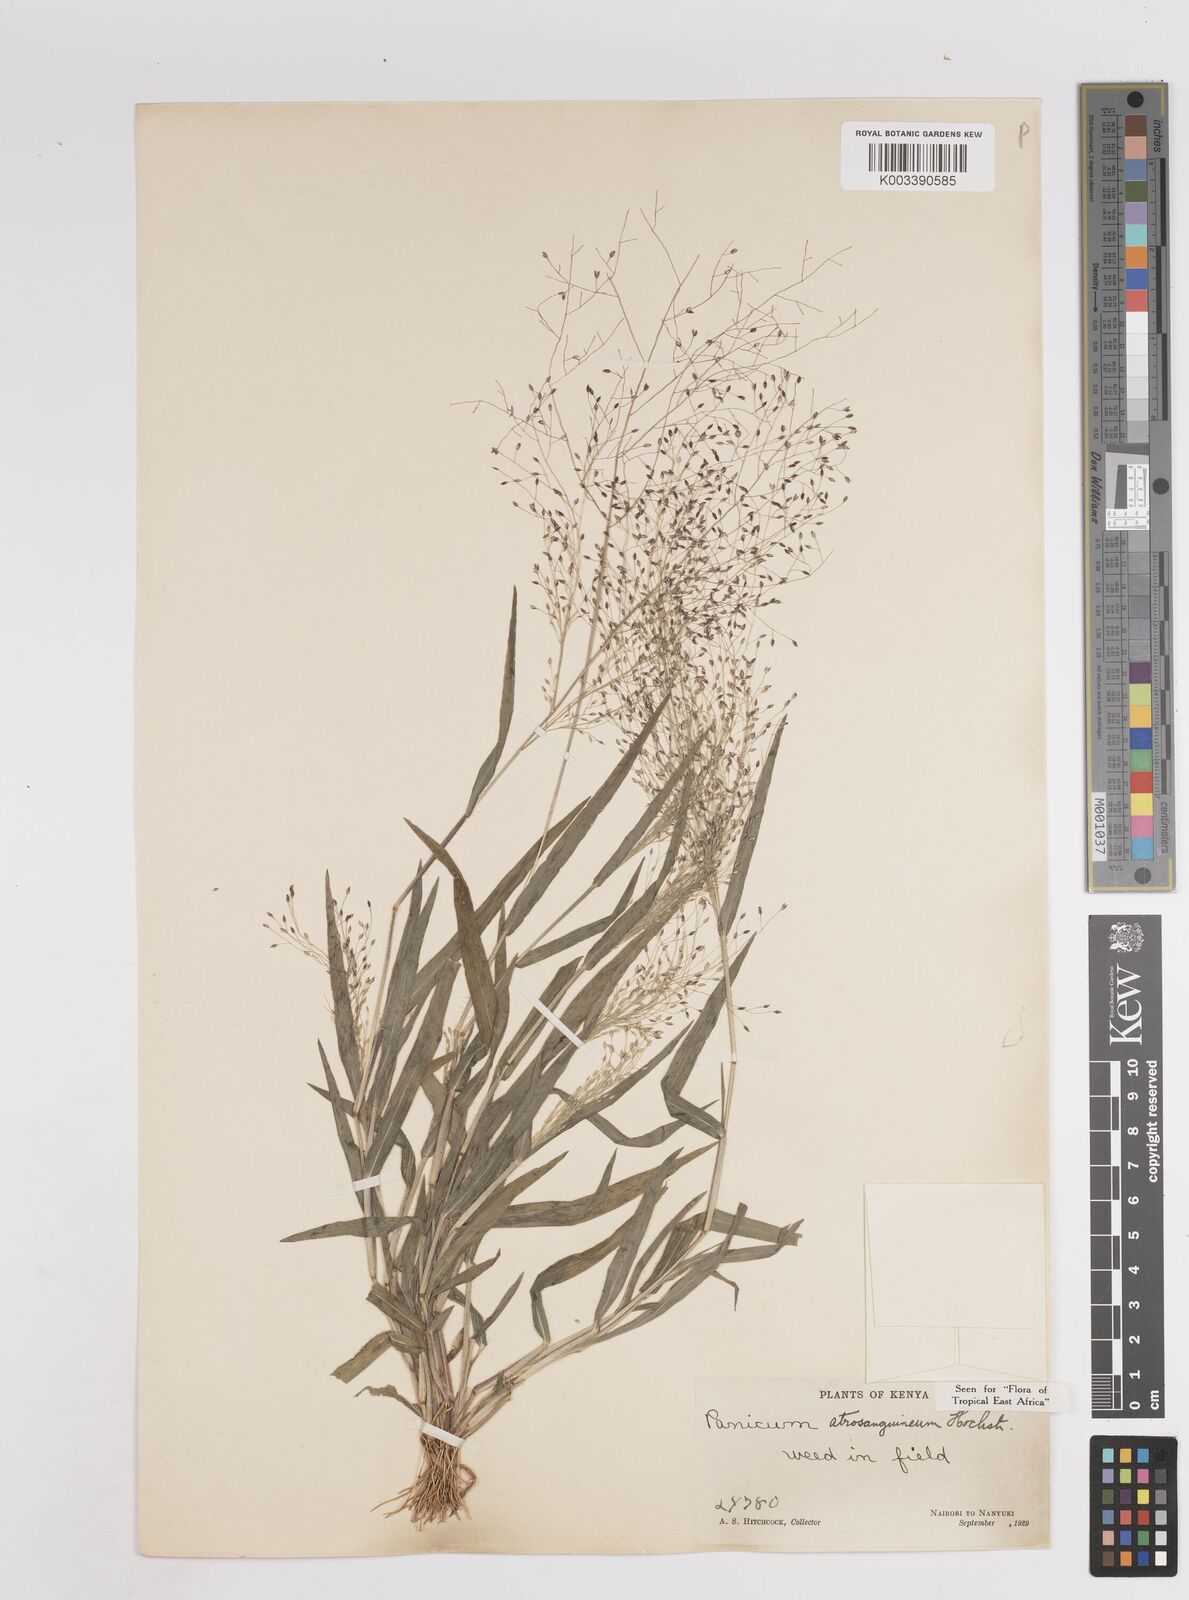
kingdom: Plantae
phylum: Tracheophyta
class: Liliopsida
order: Poales
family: Poaceae
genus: Panicum
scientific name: Panicum atrosanguineum
